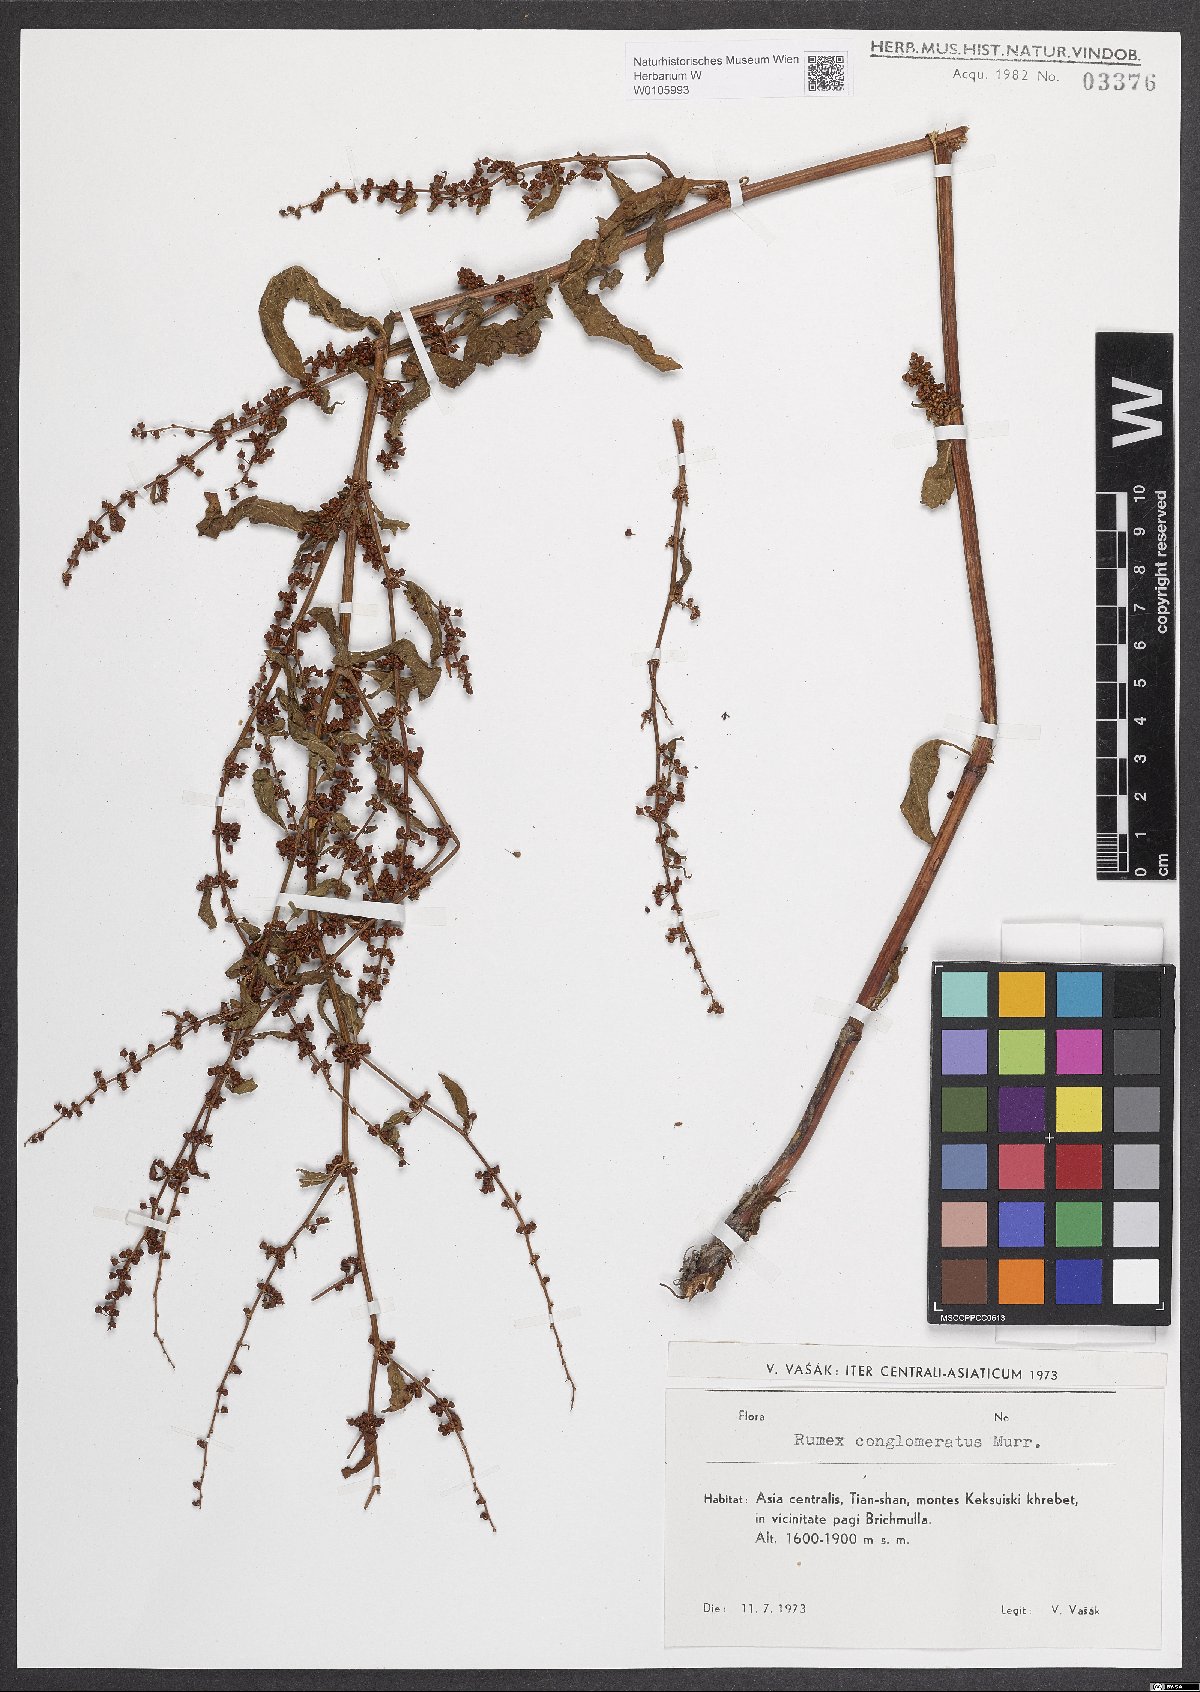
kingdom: Plantae
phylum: Tracheophyta
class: Magnoliopsida
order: Caryophyllales
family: Polygonaceae
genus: Rumex
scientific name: Rumex conglomeratus
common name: Clustered dock
